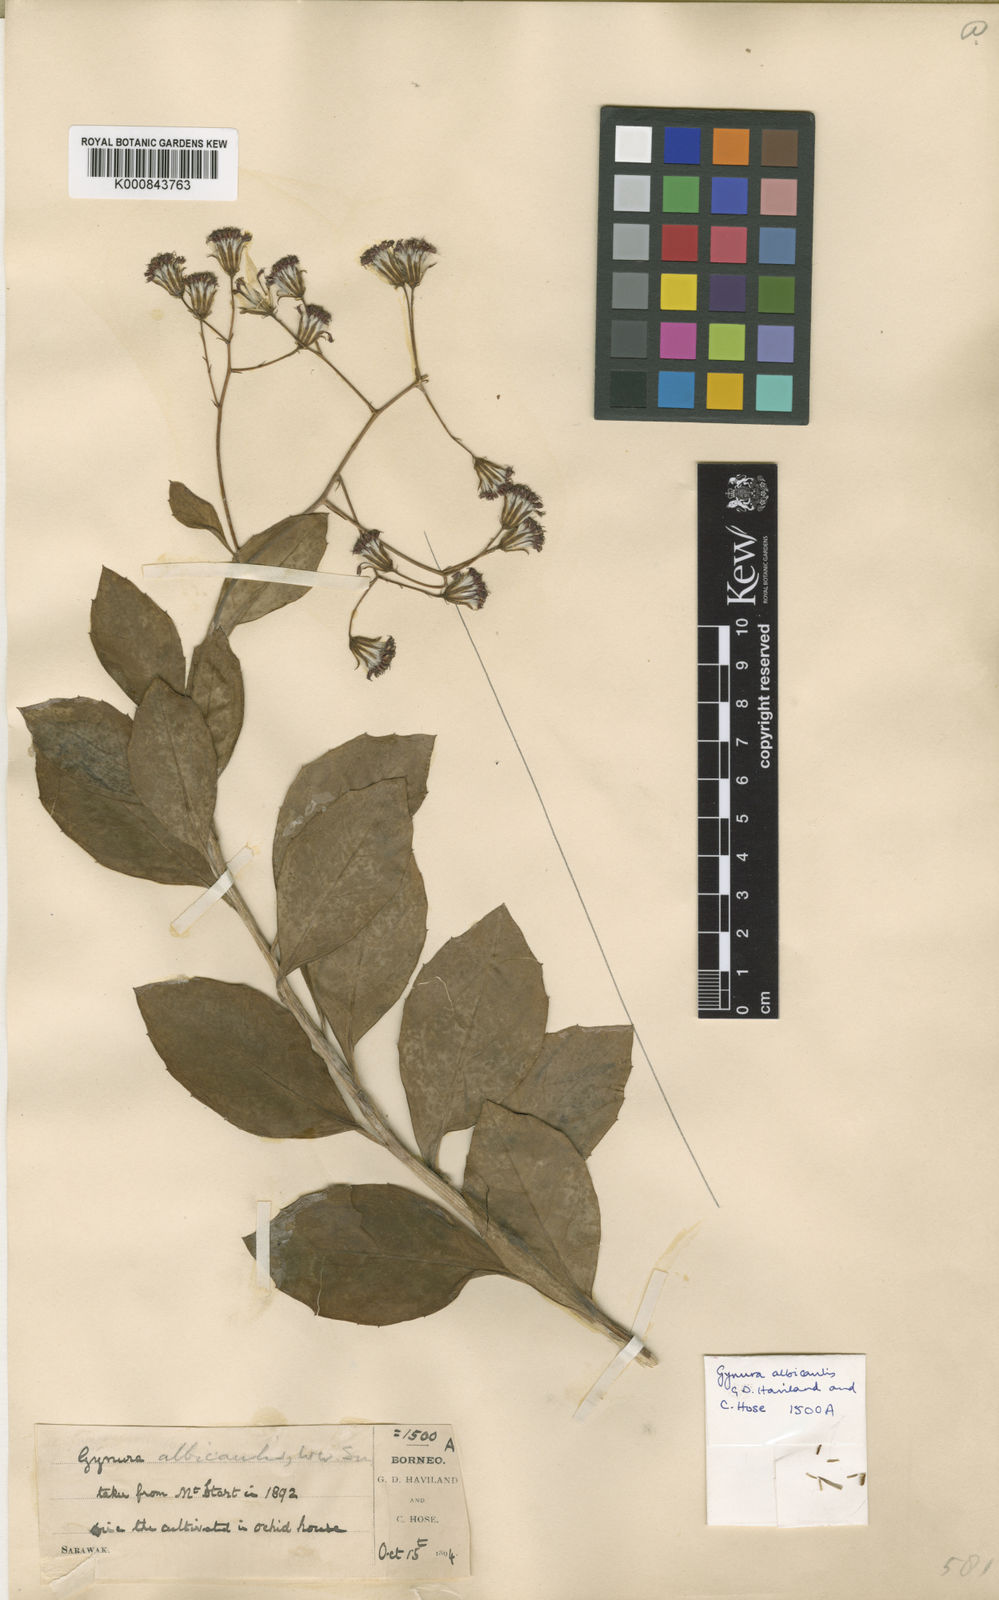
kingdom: Plantae
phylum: Tracheophyta
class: Magnoliopsida
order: Asterales
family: Asteraceae
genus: Gynura
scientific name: Gynura albicaulis
